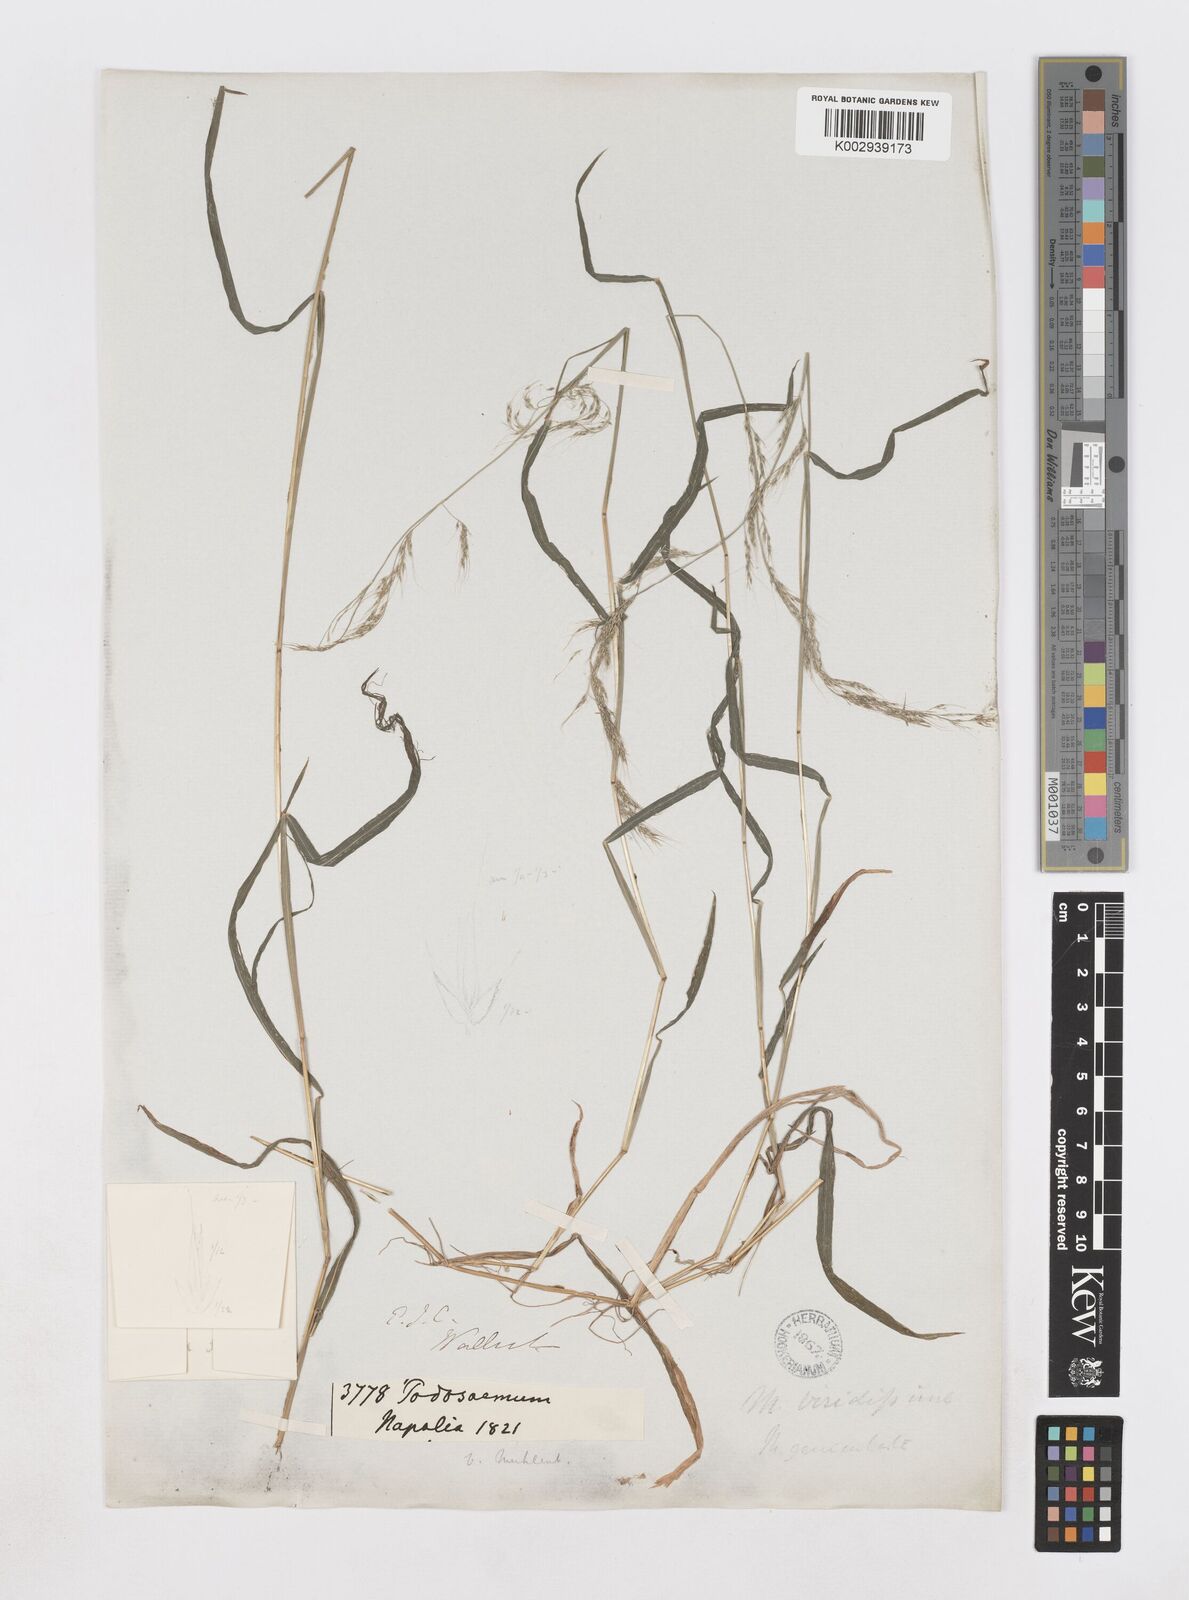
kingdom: Plantae
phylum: Tracheophyta
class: Liliopsida
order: Poales
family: Poaceae
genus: Muhlenbergia
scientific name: Muhlenbergia huegelii
